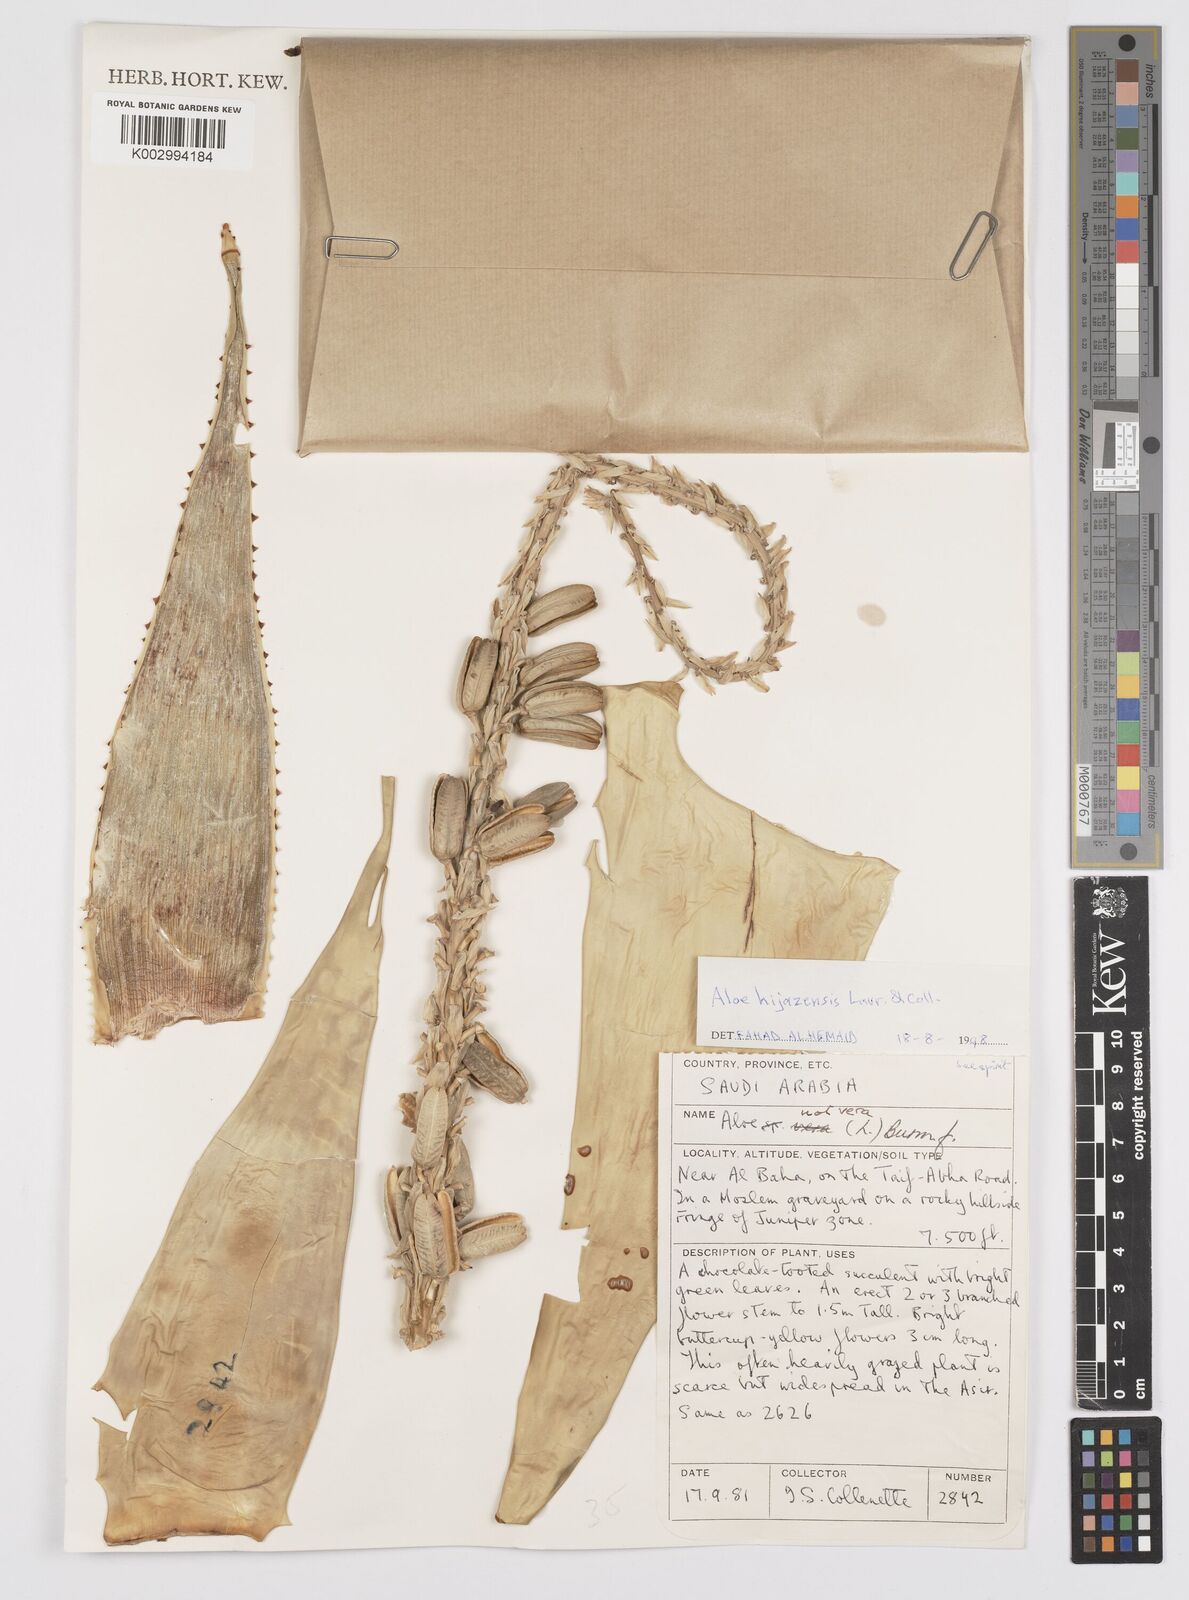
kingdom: Plantae
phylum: Tracheophyta
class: Liliopsida
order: Asparagales
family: Asphodelaceae
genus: Aloe
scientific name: Aloe castellorum
